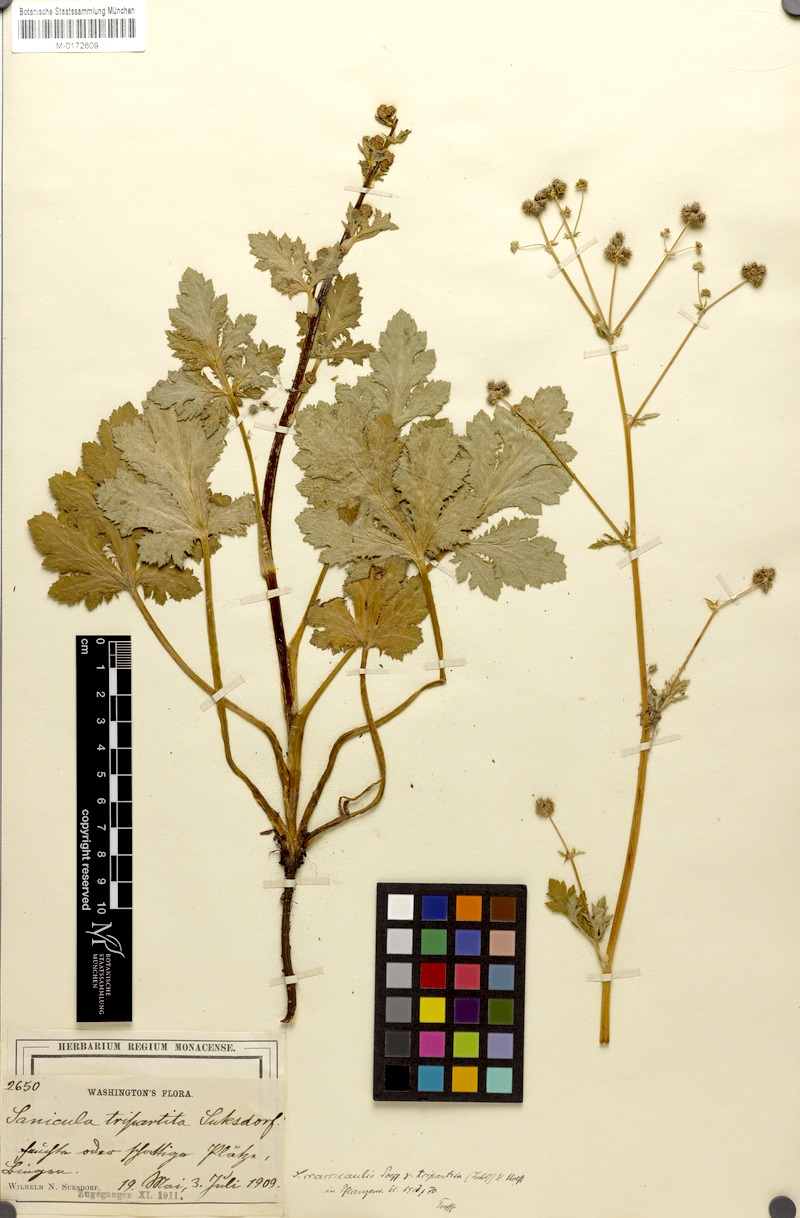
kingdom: Plantae
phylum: Tracheophyta
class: Magnoliopsida
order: Apiales
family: Apiaceae
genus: Sanicula
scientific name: Sanicula crassicaulis
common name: Western snakeroot
